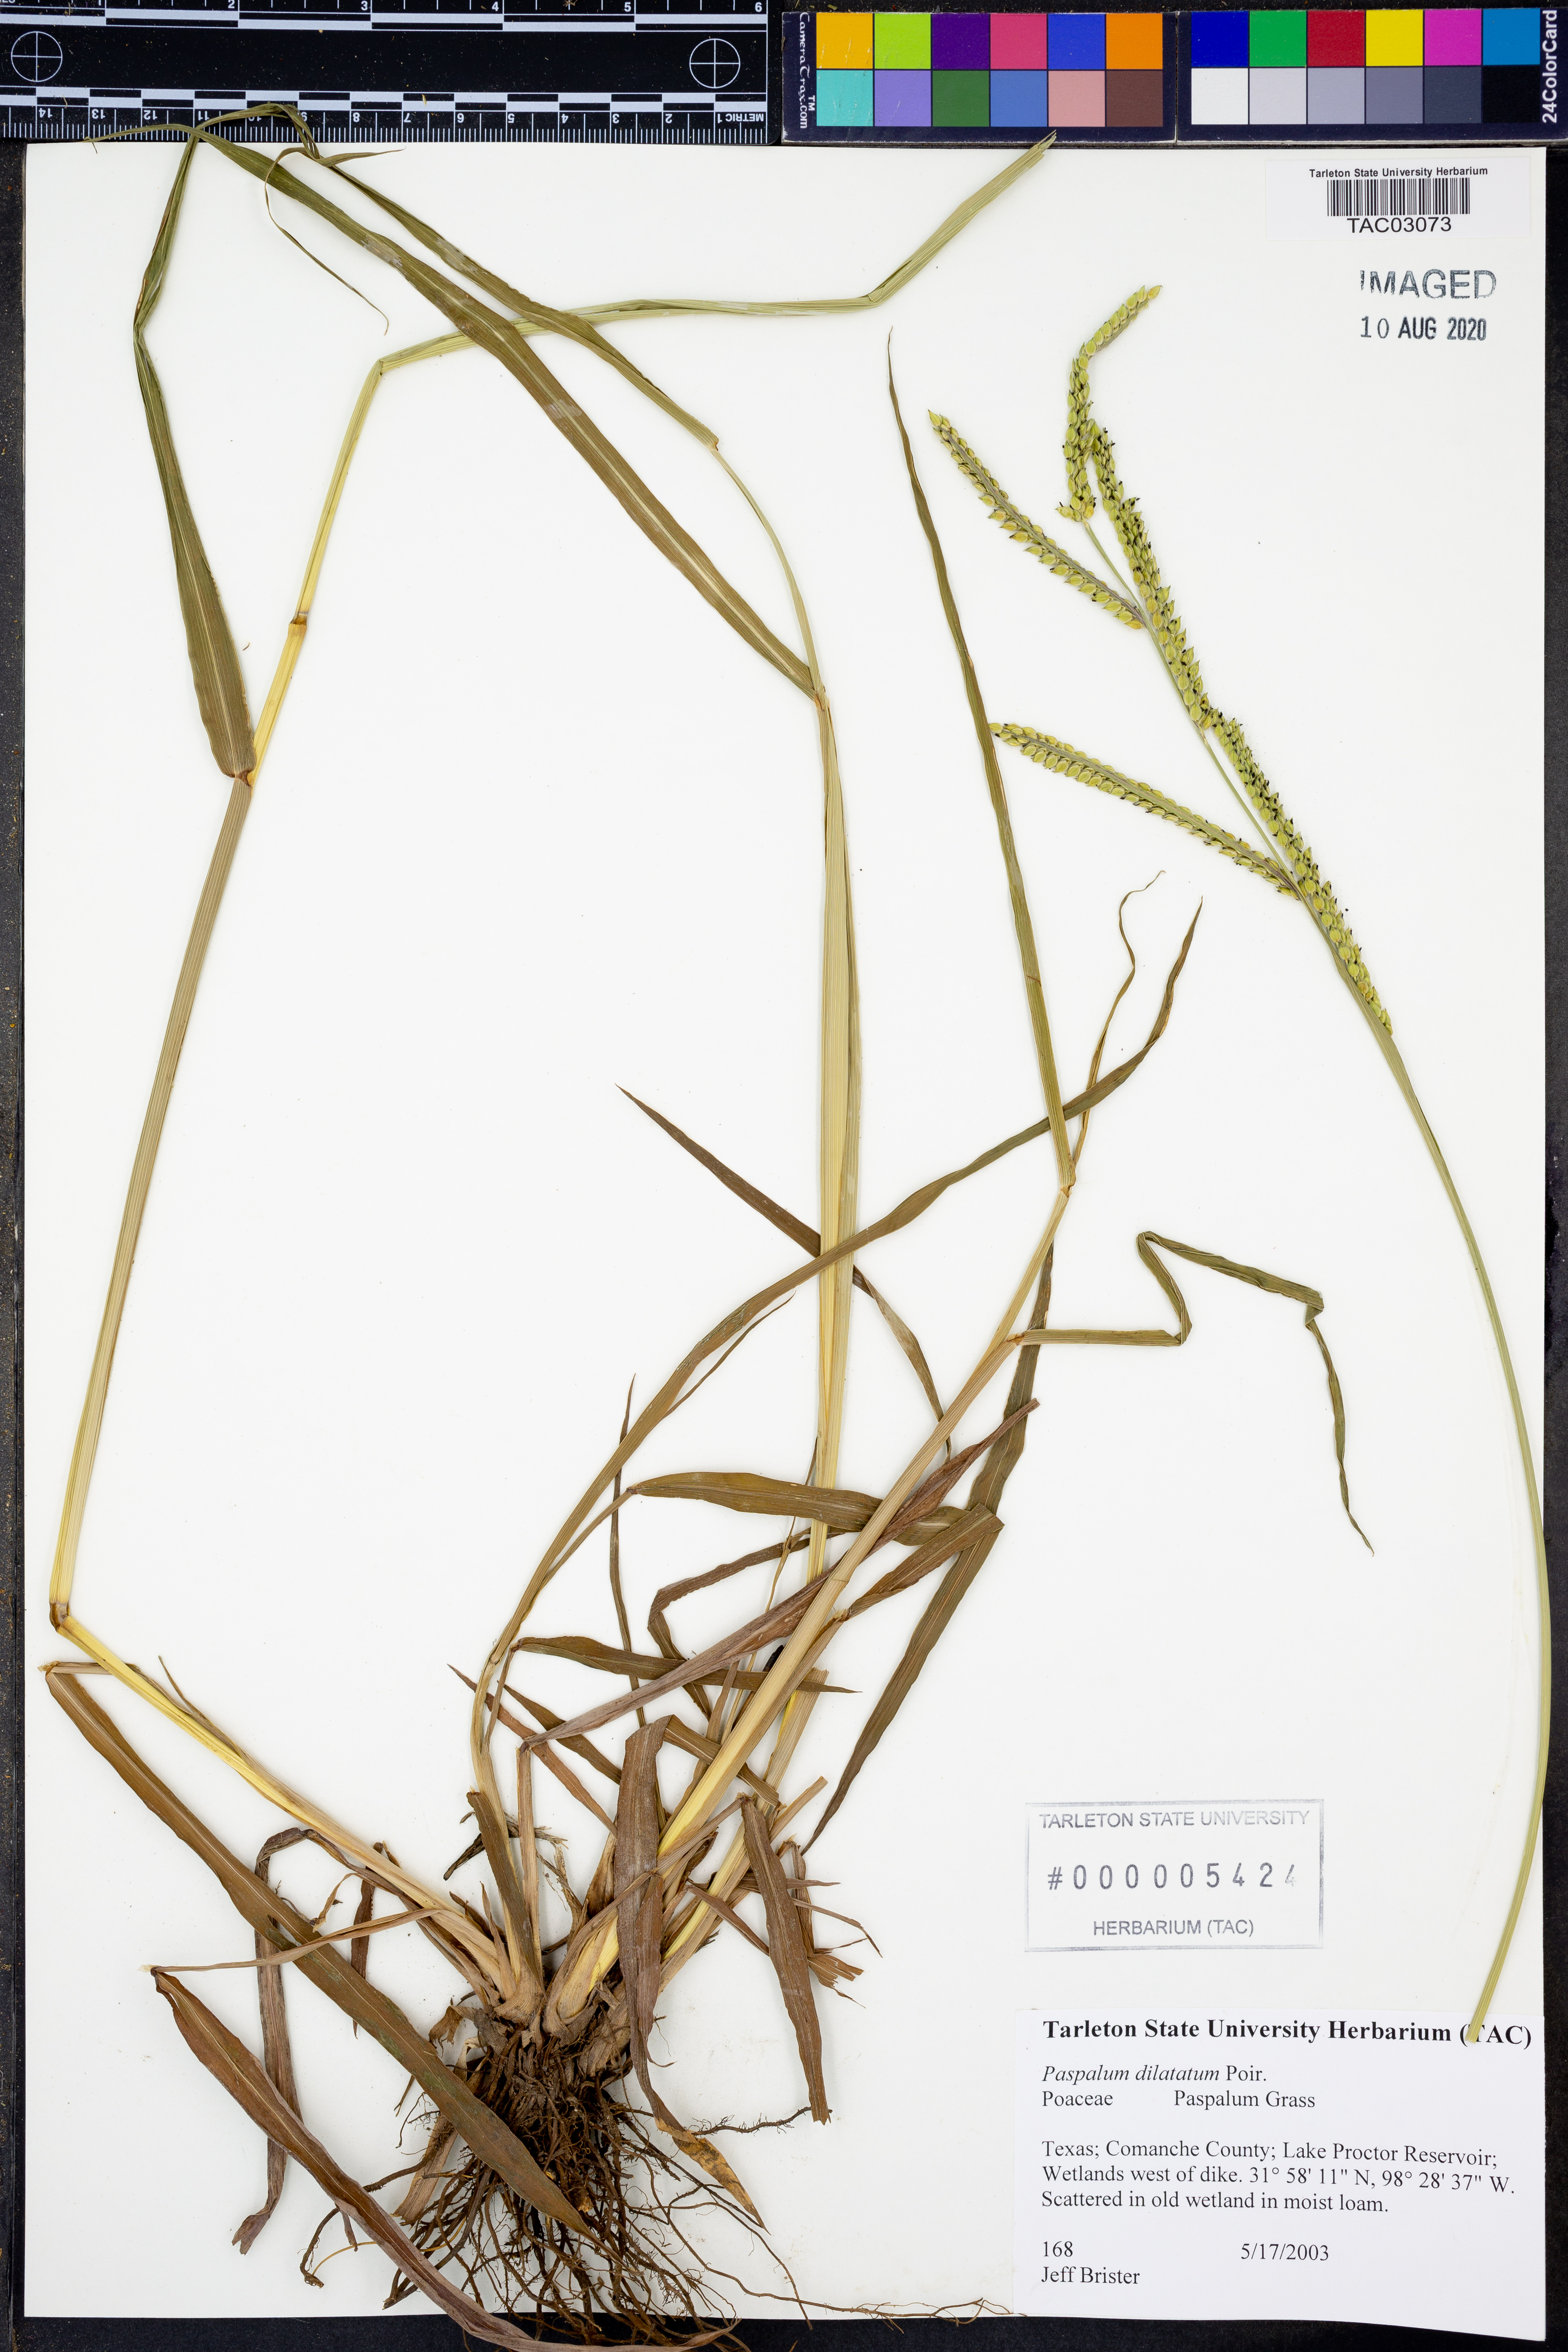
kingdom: Plantae
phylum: Tracheophyta
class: Liliopsida
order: Poales
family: Poaceae
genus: Paspalum
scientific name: Paspalum dilatatum
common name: Dallisgrass
